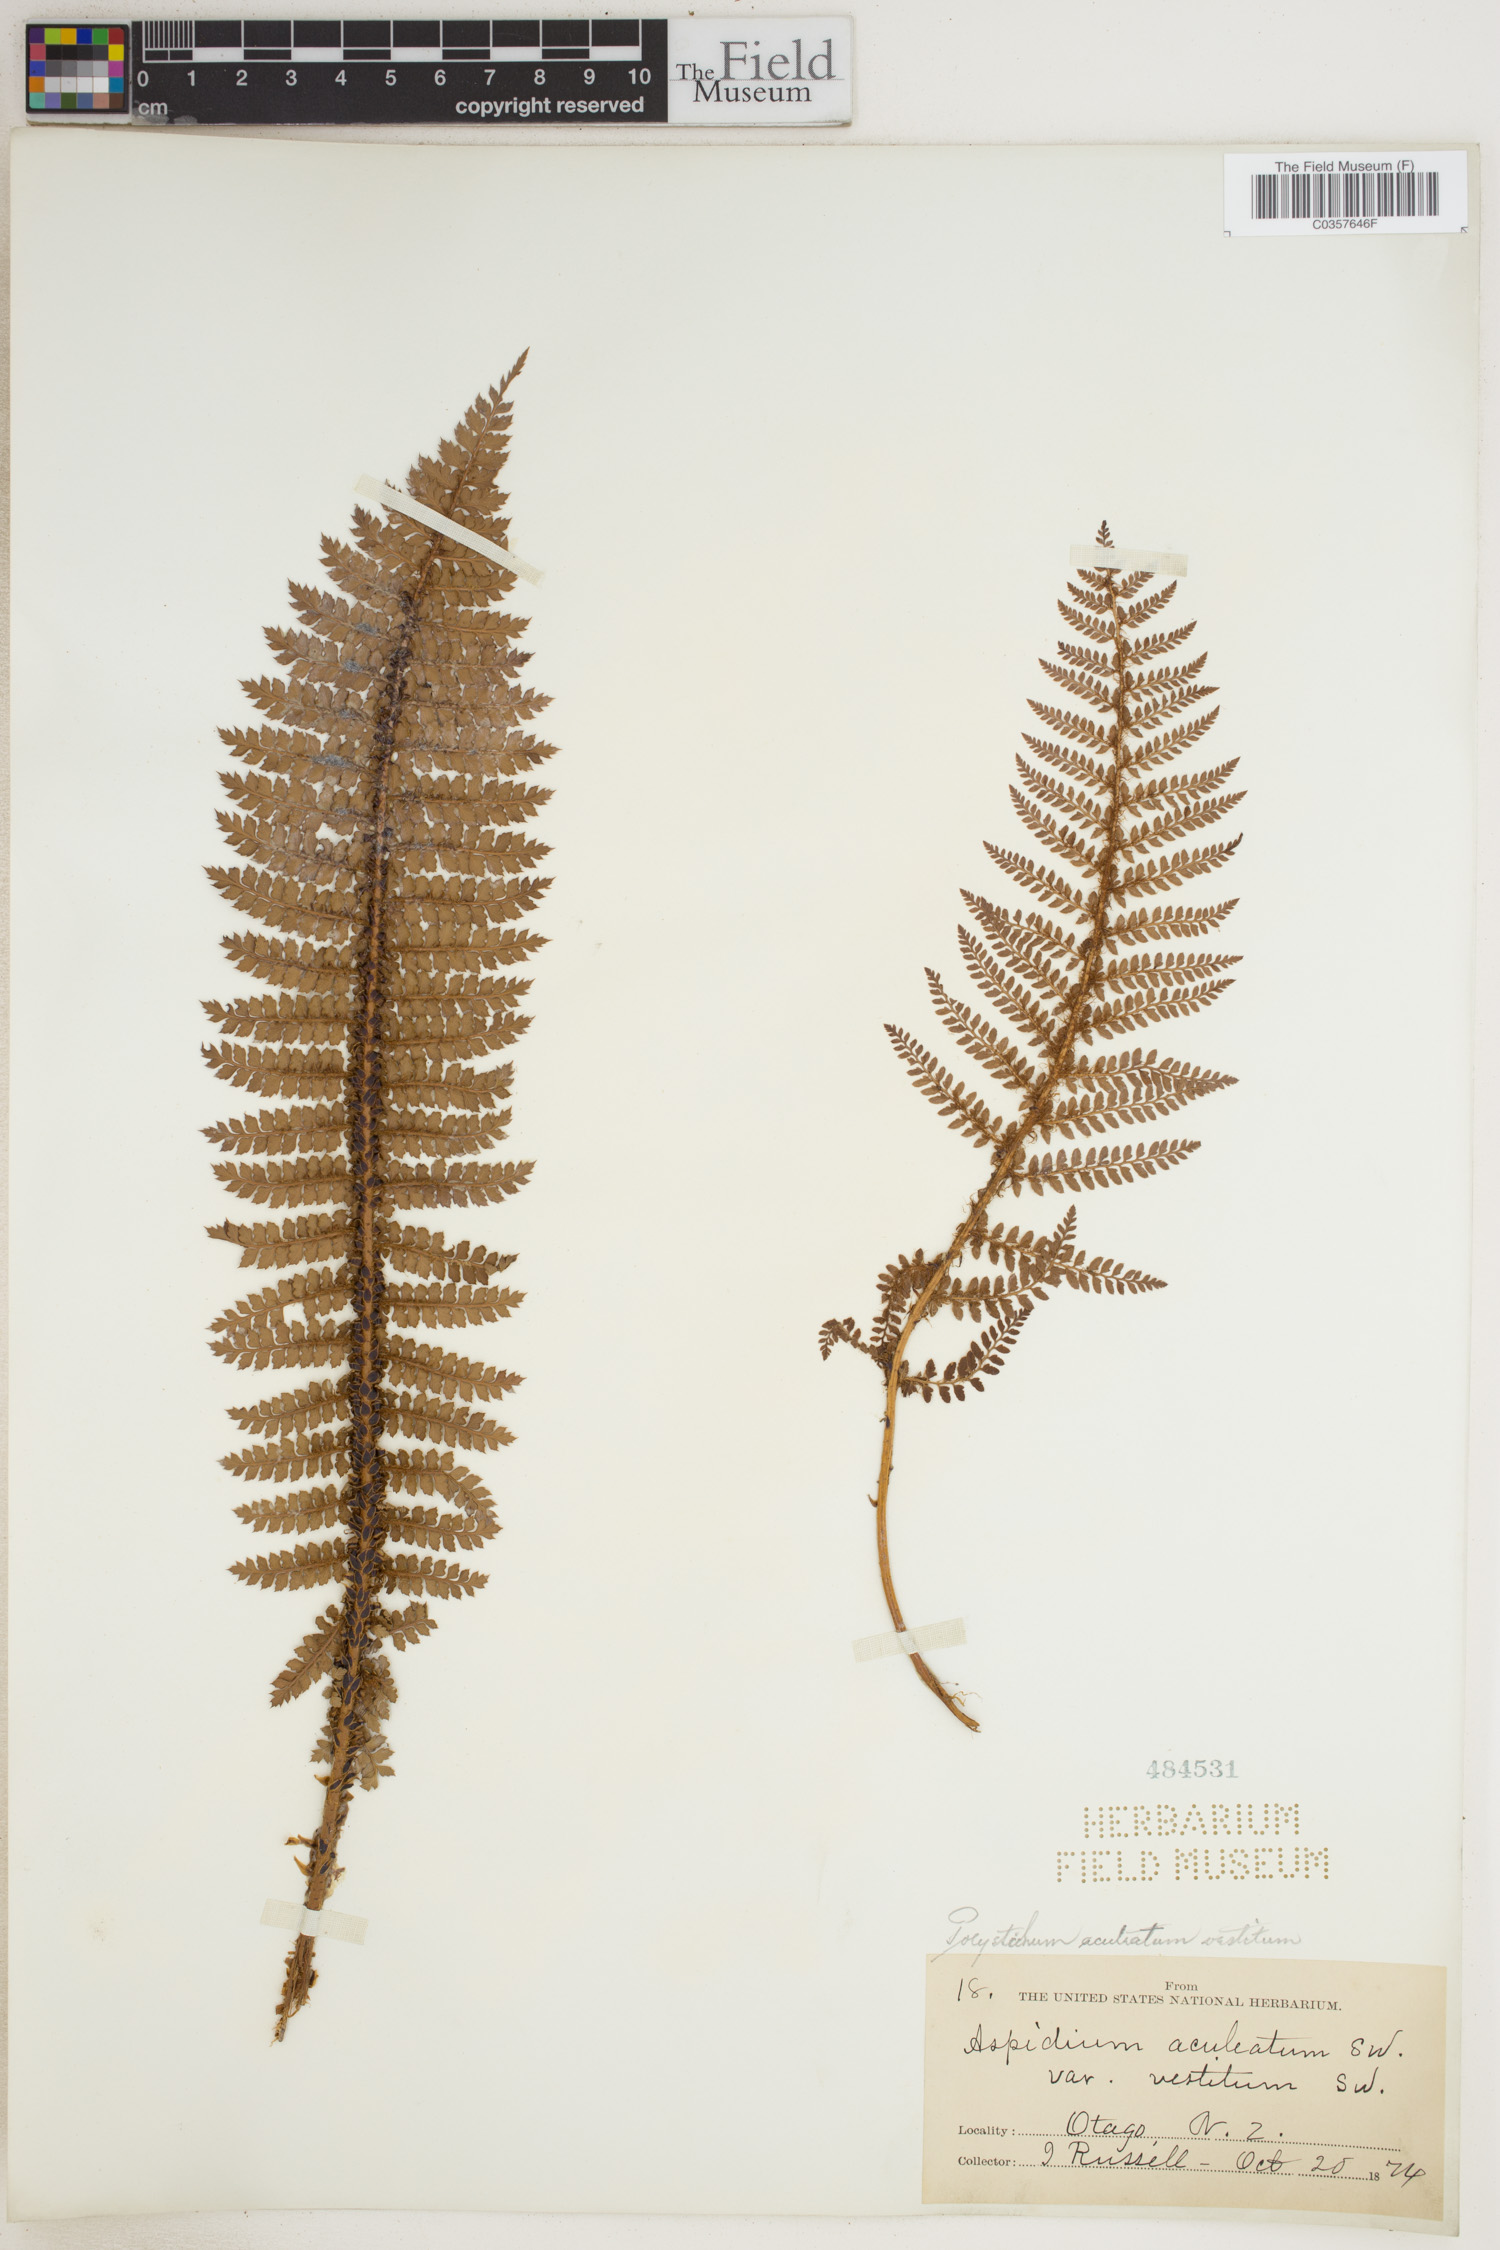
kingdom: Plantae
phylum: Tracheophyta
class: Polypodiopsida
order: Polypodiales
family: Dryopteridaceae
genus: Polystichum
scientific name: Polystichum aculeatum
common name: Hard shield-fern
